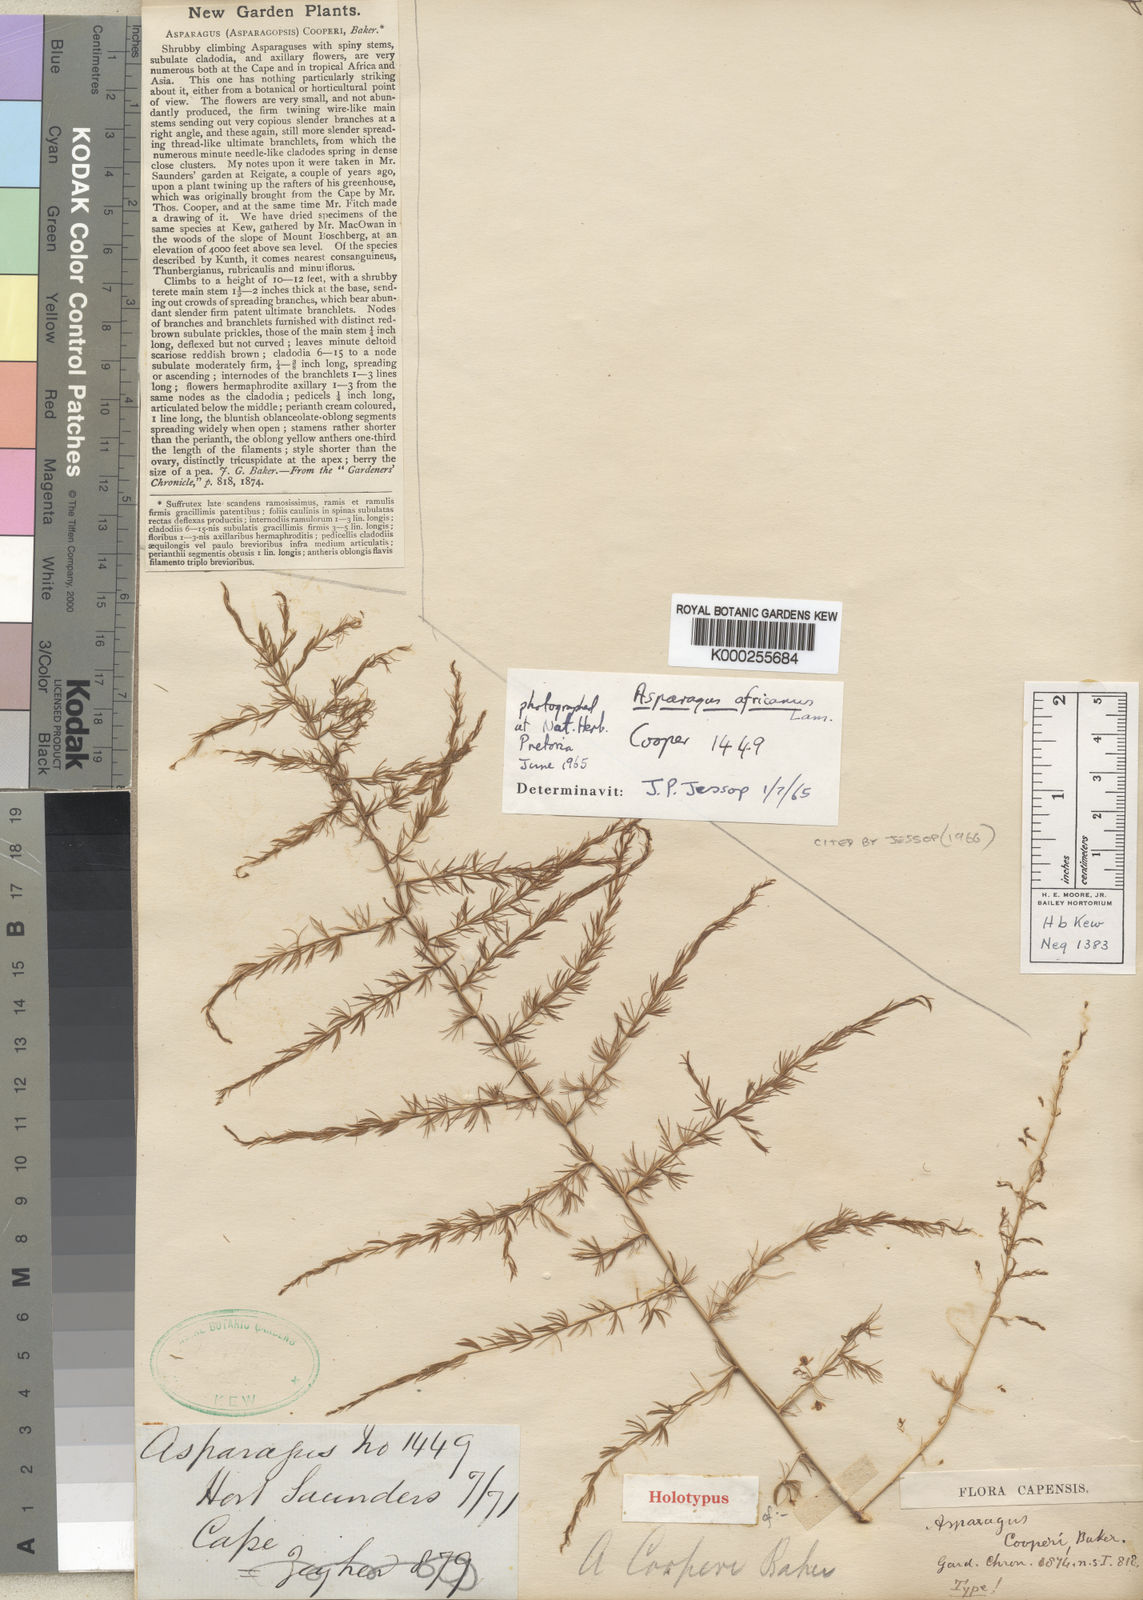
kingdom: Plantae
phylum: Tracheophyta
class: Liliopsida
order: Asparagales
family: Asparagaceae
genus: Asparagus
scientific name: Asparagus africanus
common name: Asparagus-fern
